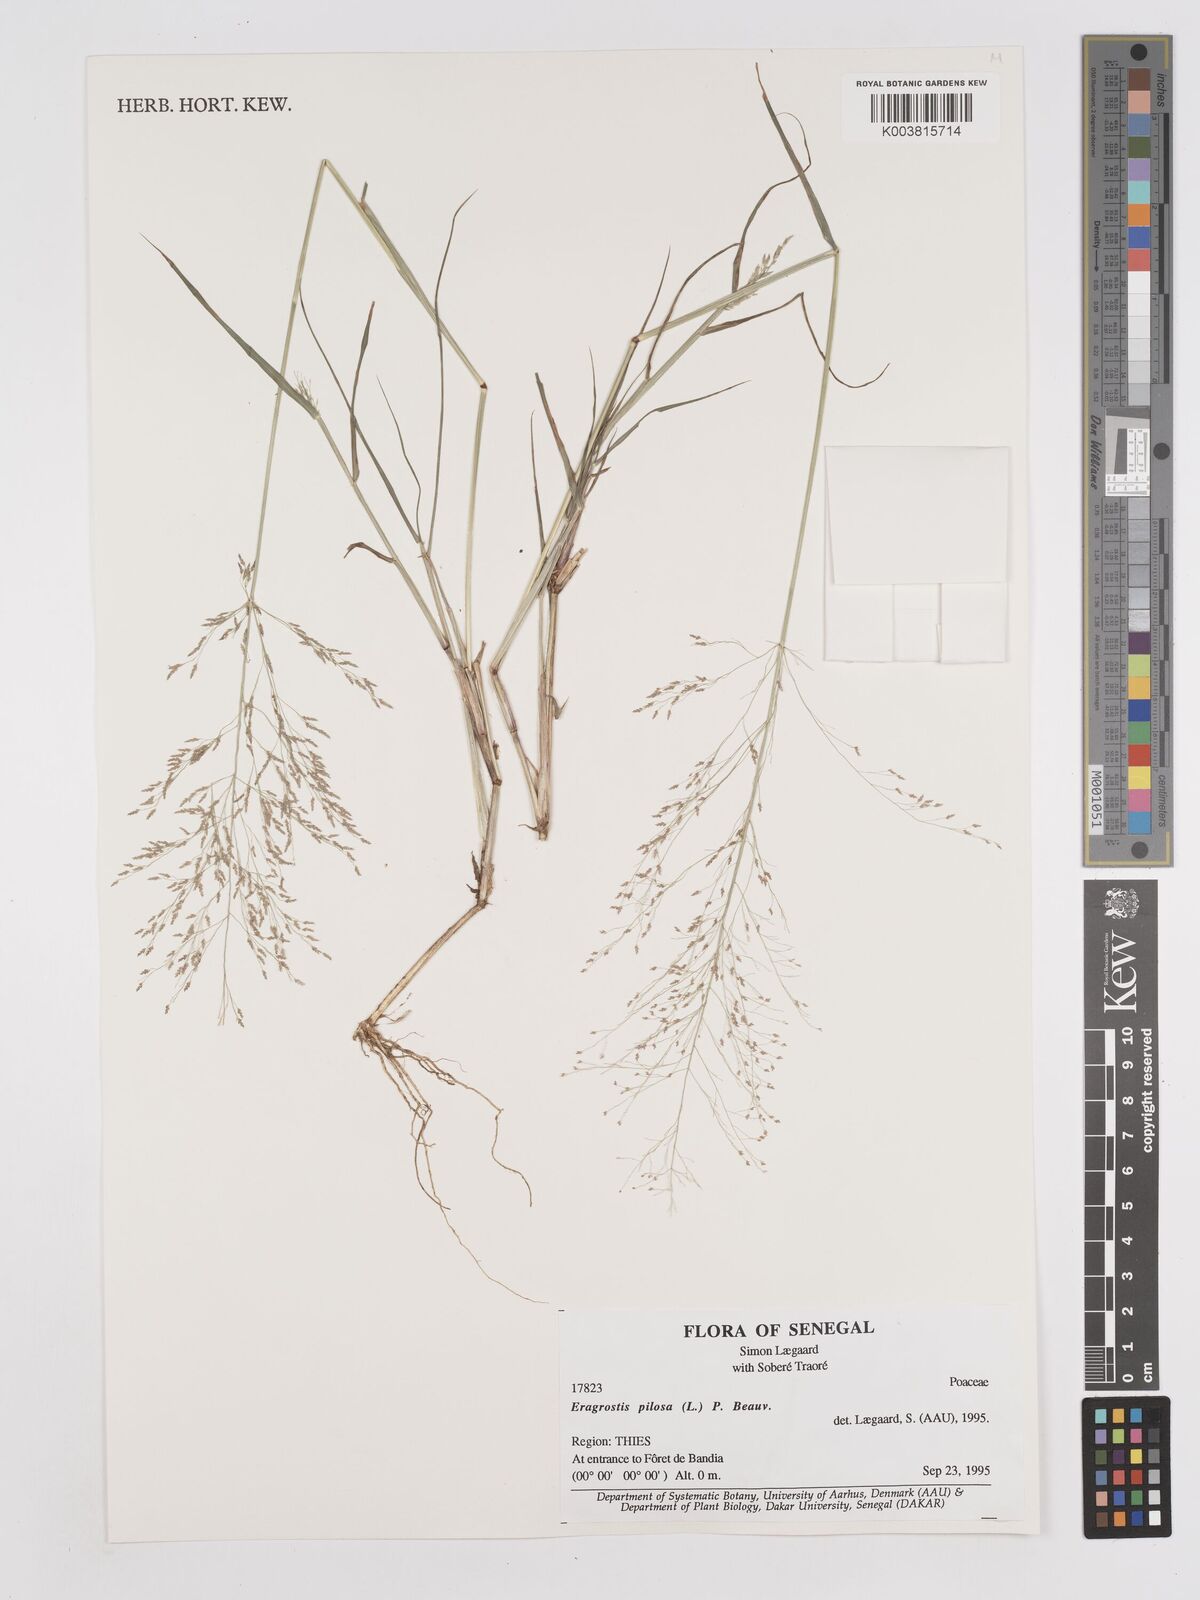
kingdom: Plantae
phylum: Tracheophyta
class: Liliopsida
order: Poales
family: Poaceae
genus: Eragrostis
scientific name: Eragrostis pilosa
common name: Indian lovegrass
